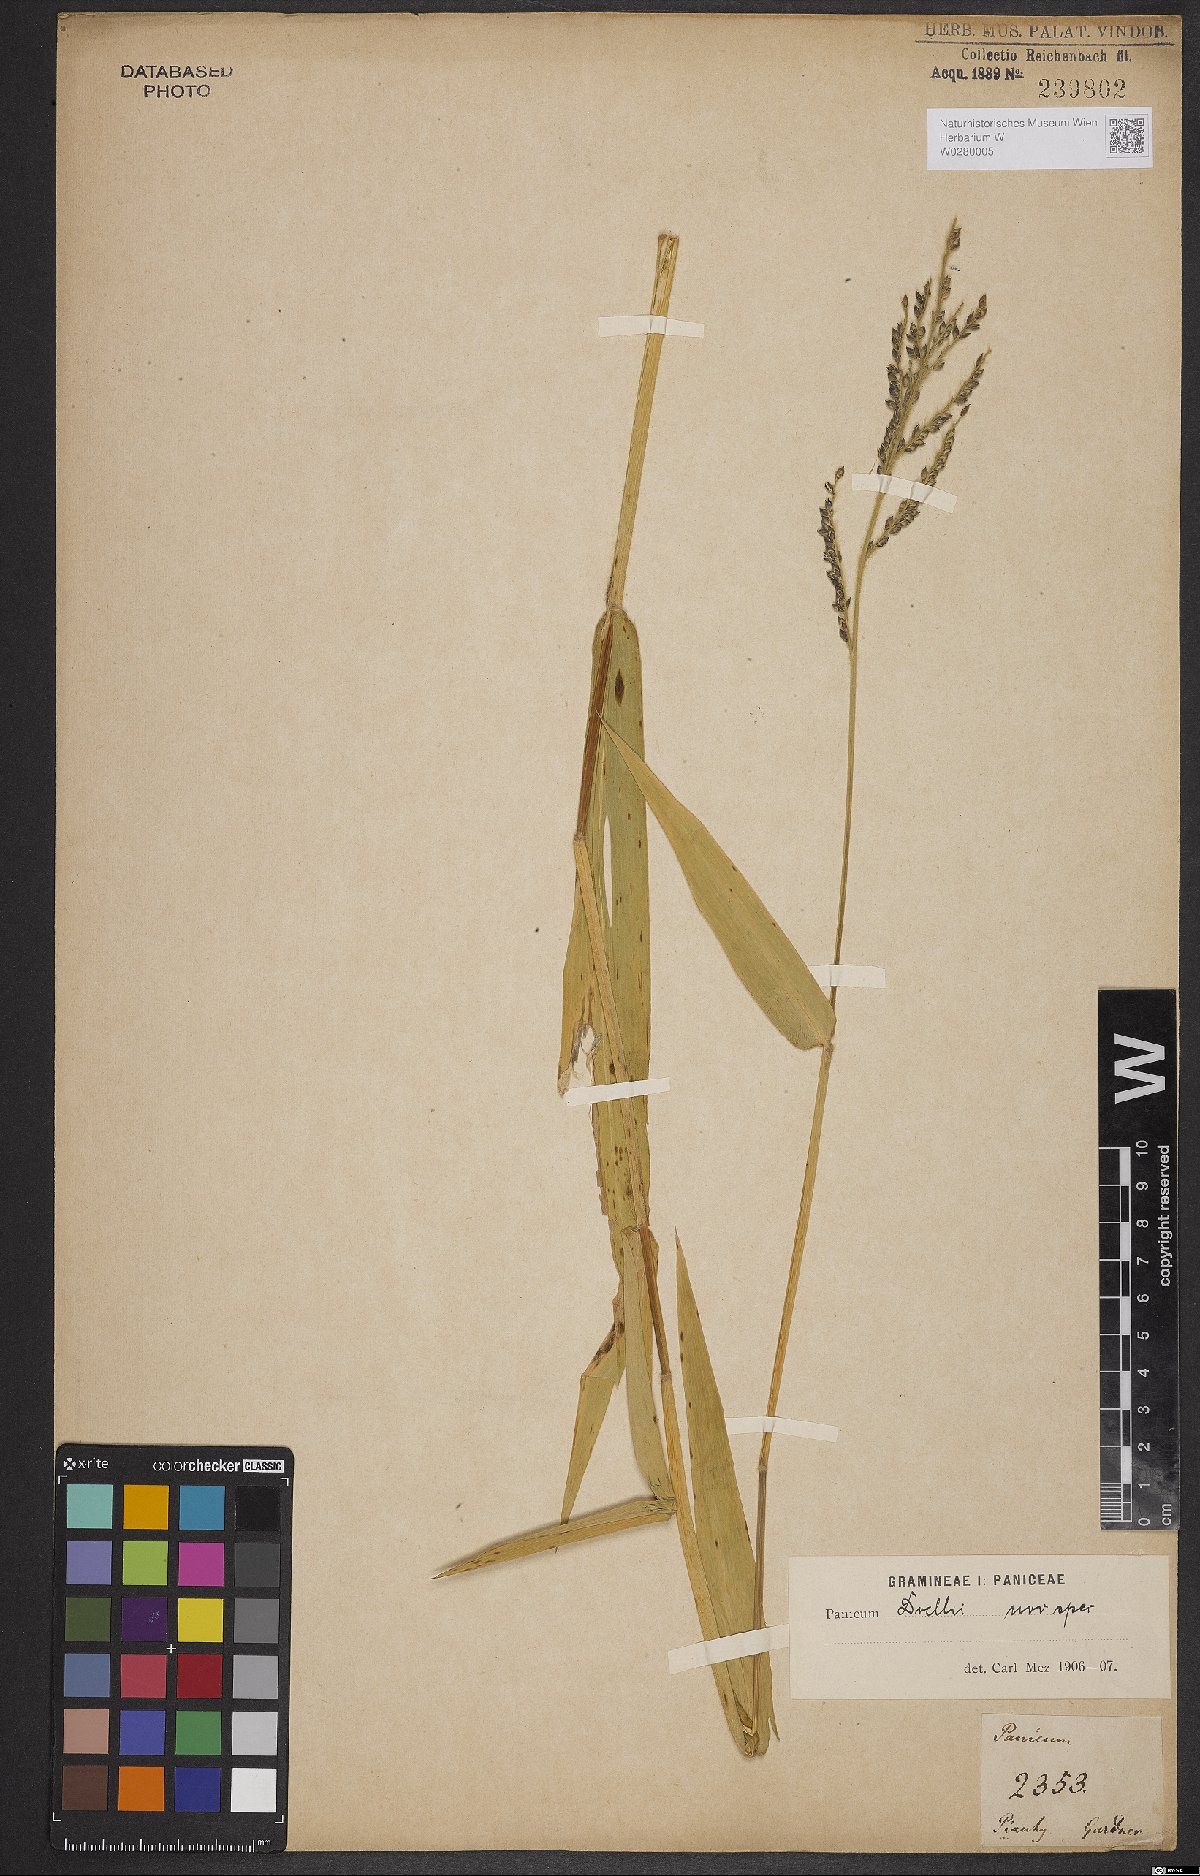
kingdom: Plantae
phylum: Tracheophyta
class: Liliopsida
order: Poales
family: Poaceae
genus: Urochloa
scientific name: Urochloa mollis
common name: Grass
